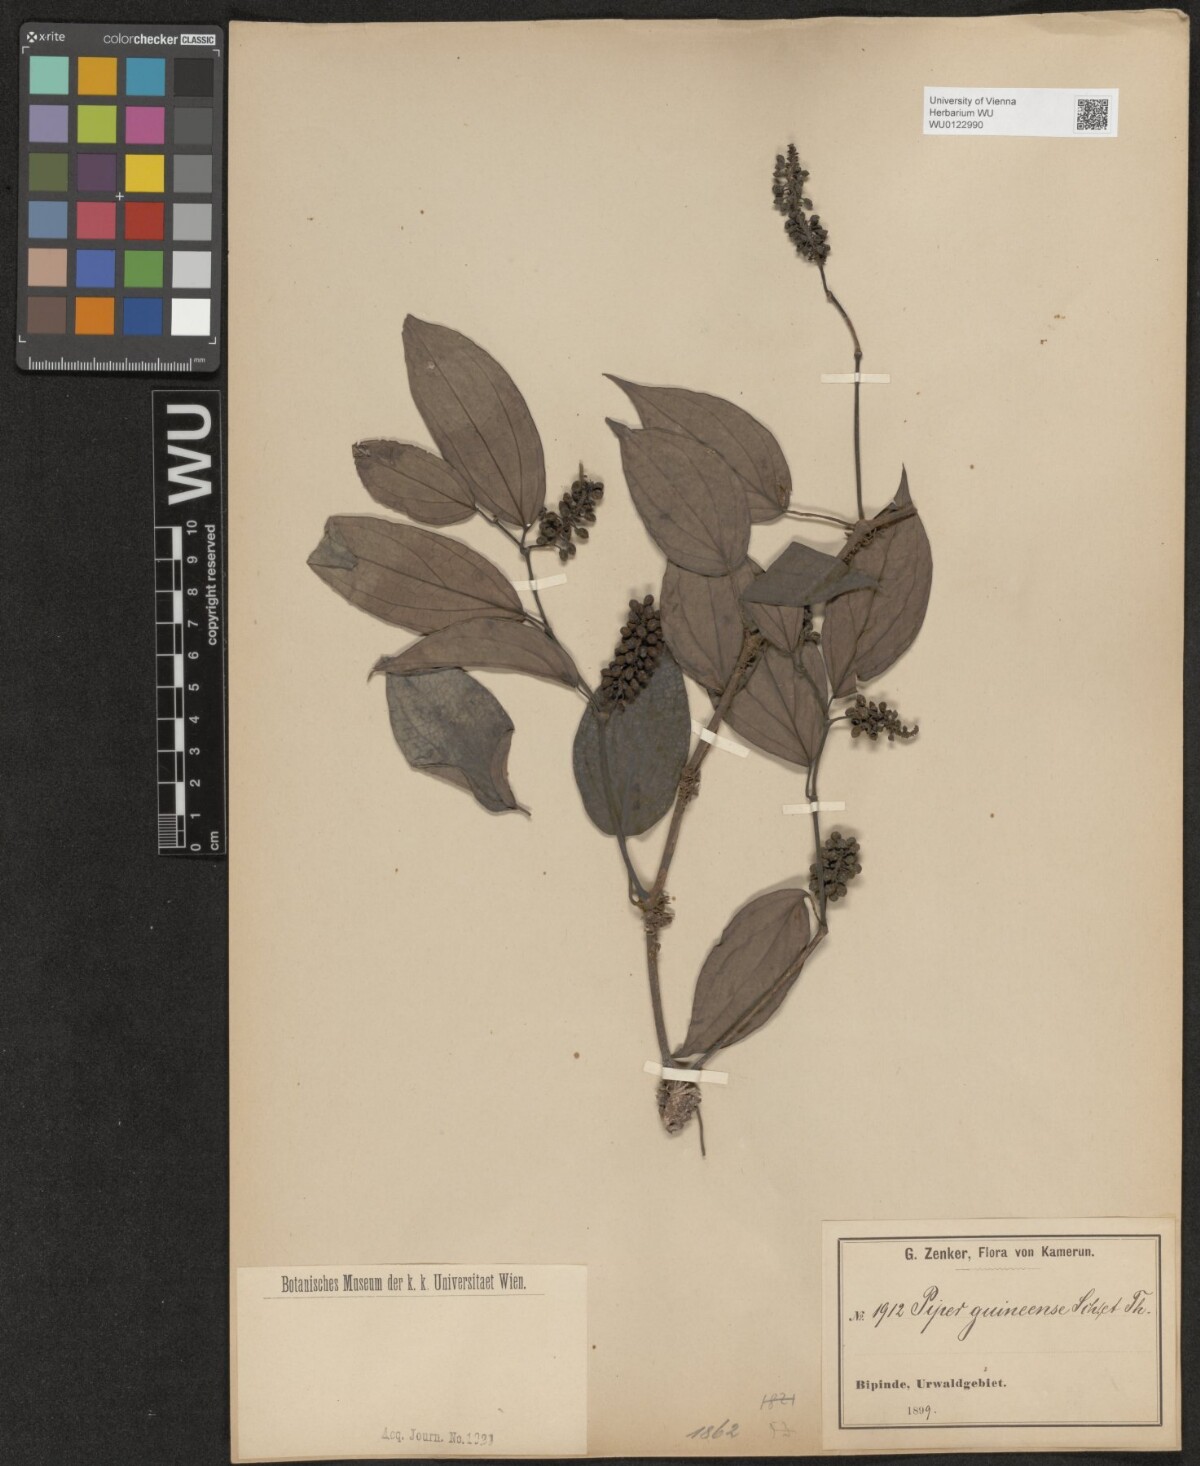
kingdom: Plantae
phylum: Tracheophyta
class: Magnoliopsida
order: Piperales
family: Piperaceae
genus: Piper
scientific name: Piper guineense
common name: Benin pepper
